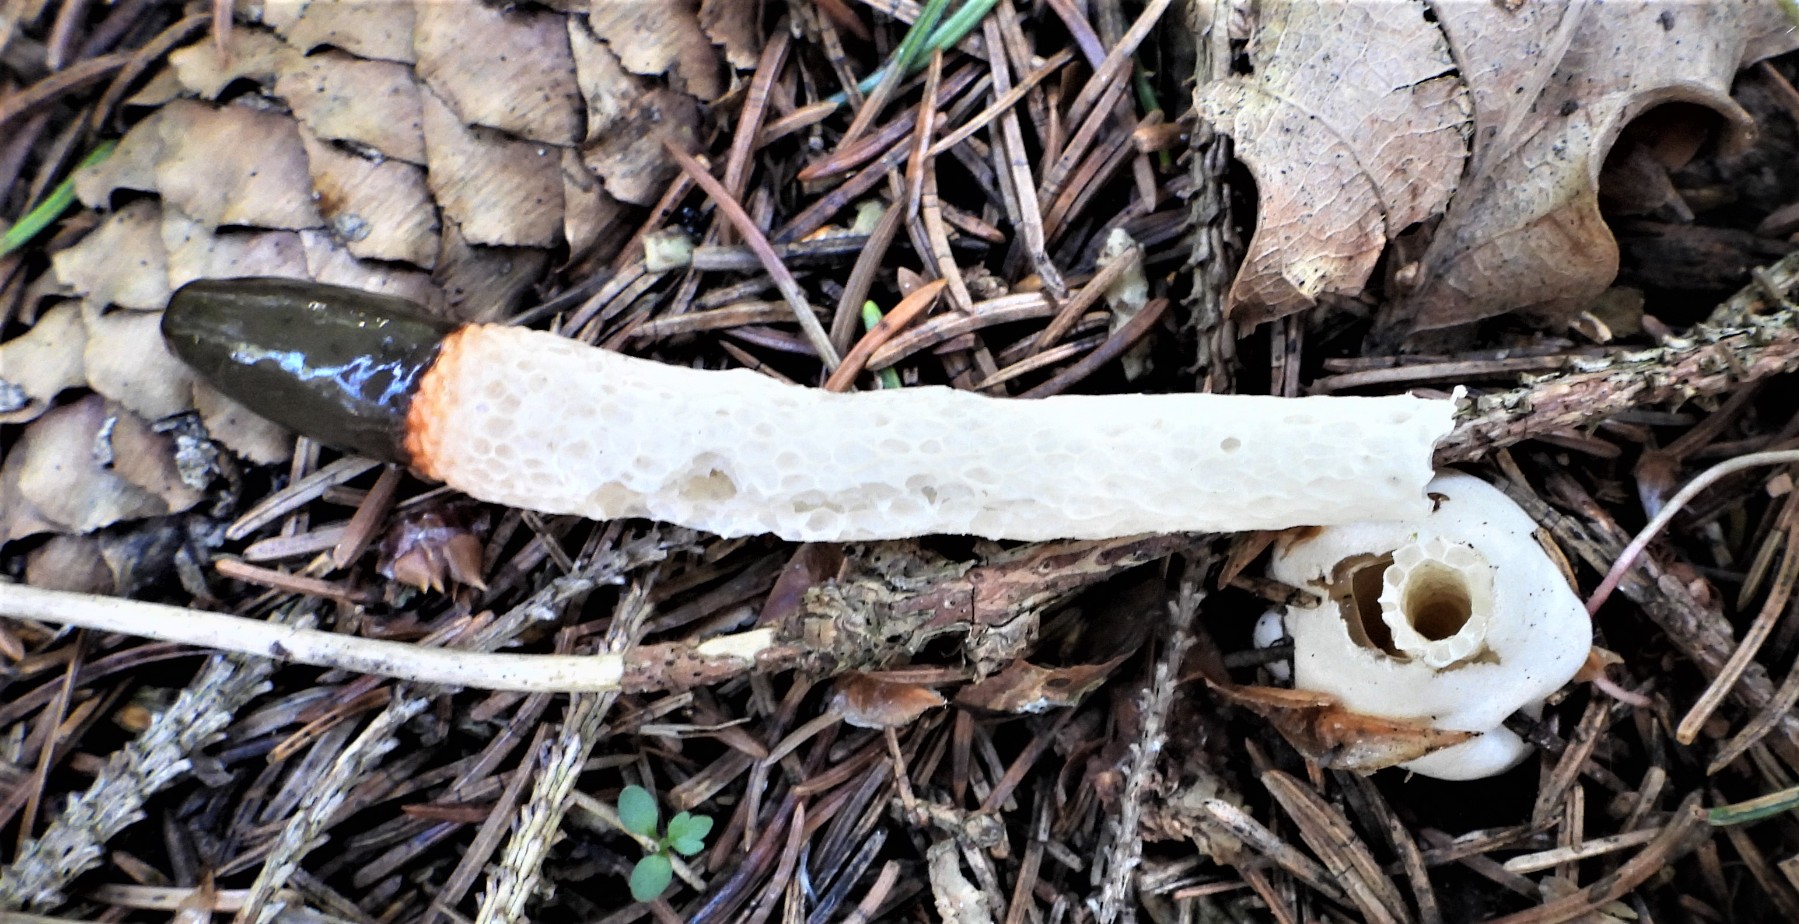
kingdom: Fungi
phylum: Basidiomycota
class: Agaricomycetes
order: Phallales
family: Phallaceae
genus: Mutinus
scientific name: Mutinus caninus
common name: hunde-stinksvamp
